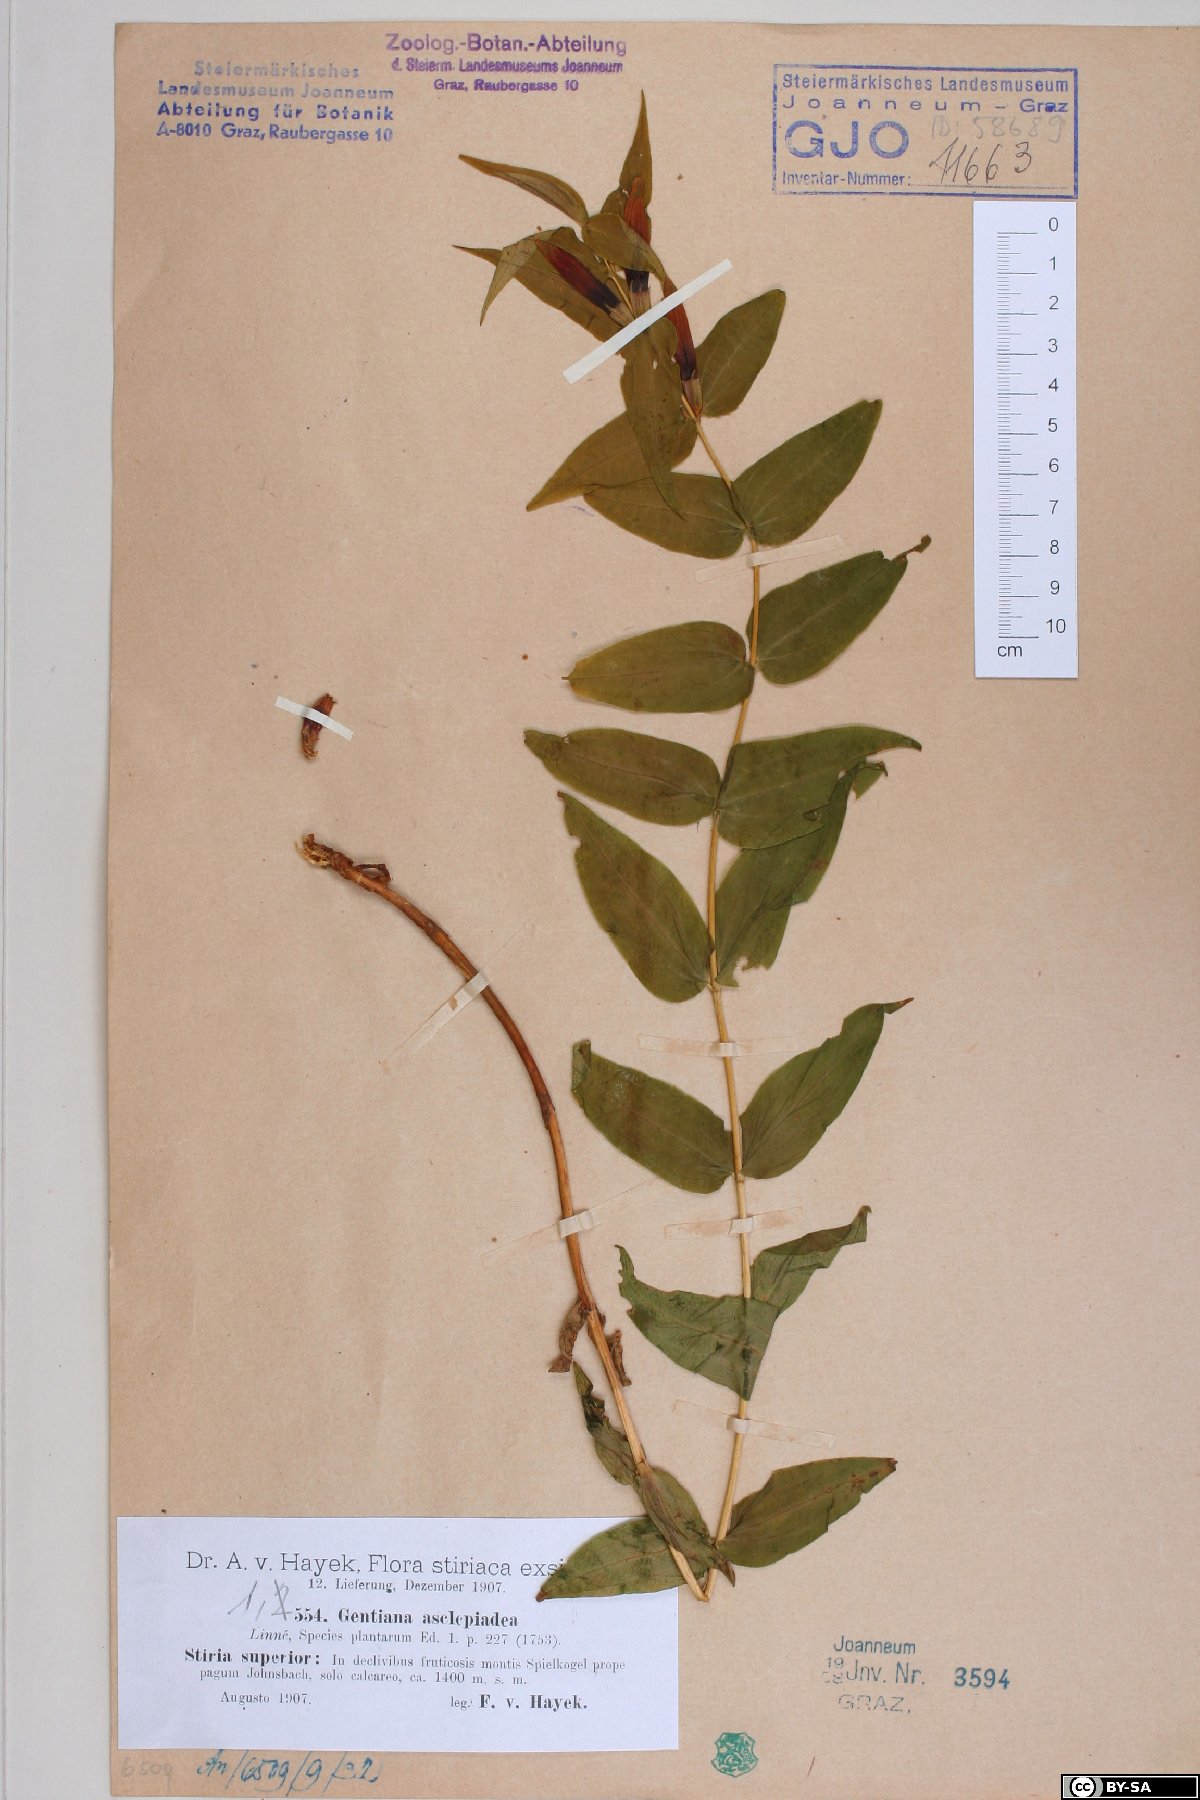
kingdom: Plantae
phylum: Tracheophyta
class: Magnoliopsida
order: Gentianales
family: Gentianaceae
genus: Gentiana
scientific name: Gentiana asclepiadea
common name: Willow gentian
